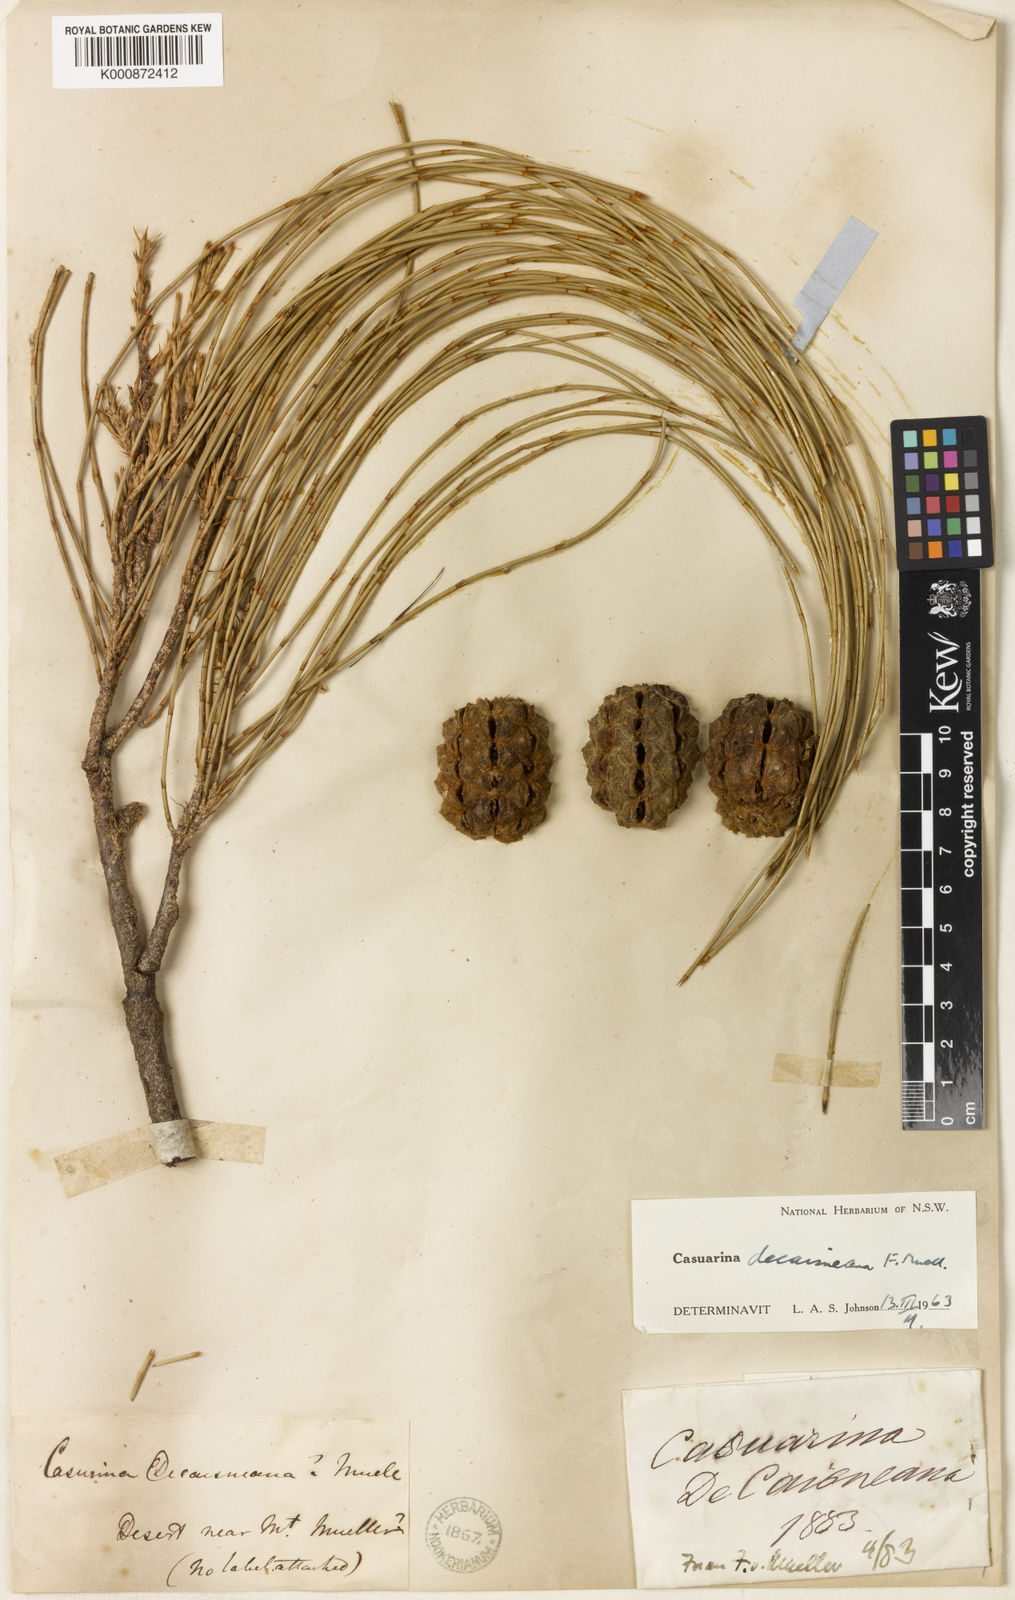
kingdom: Plantae
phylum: Tracheophyta
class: Magnoliopsida
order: Fagales
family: Casuarinaceae
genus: Allocasuarina
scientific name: Allocasuarina decaisneana
